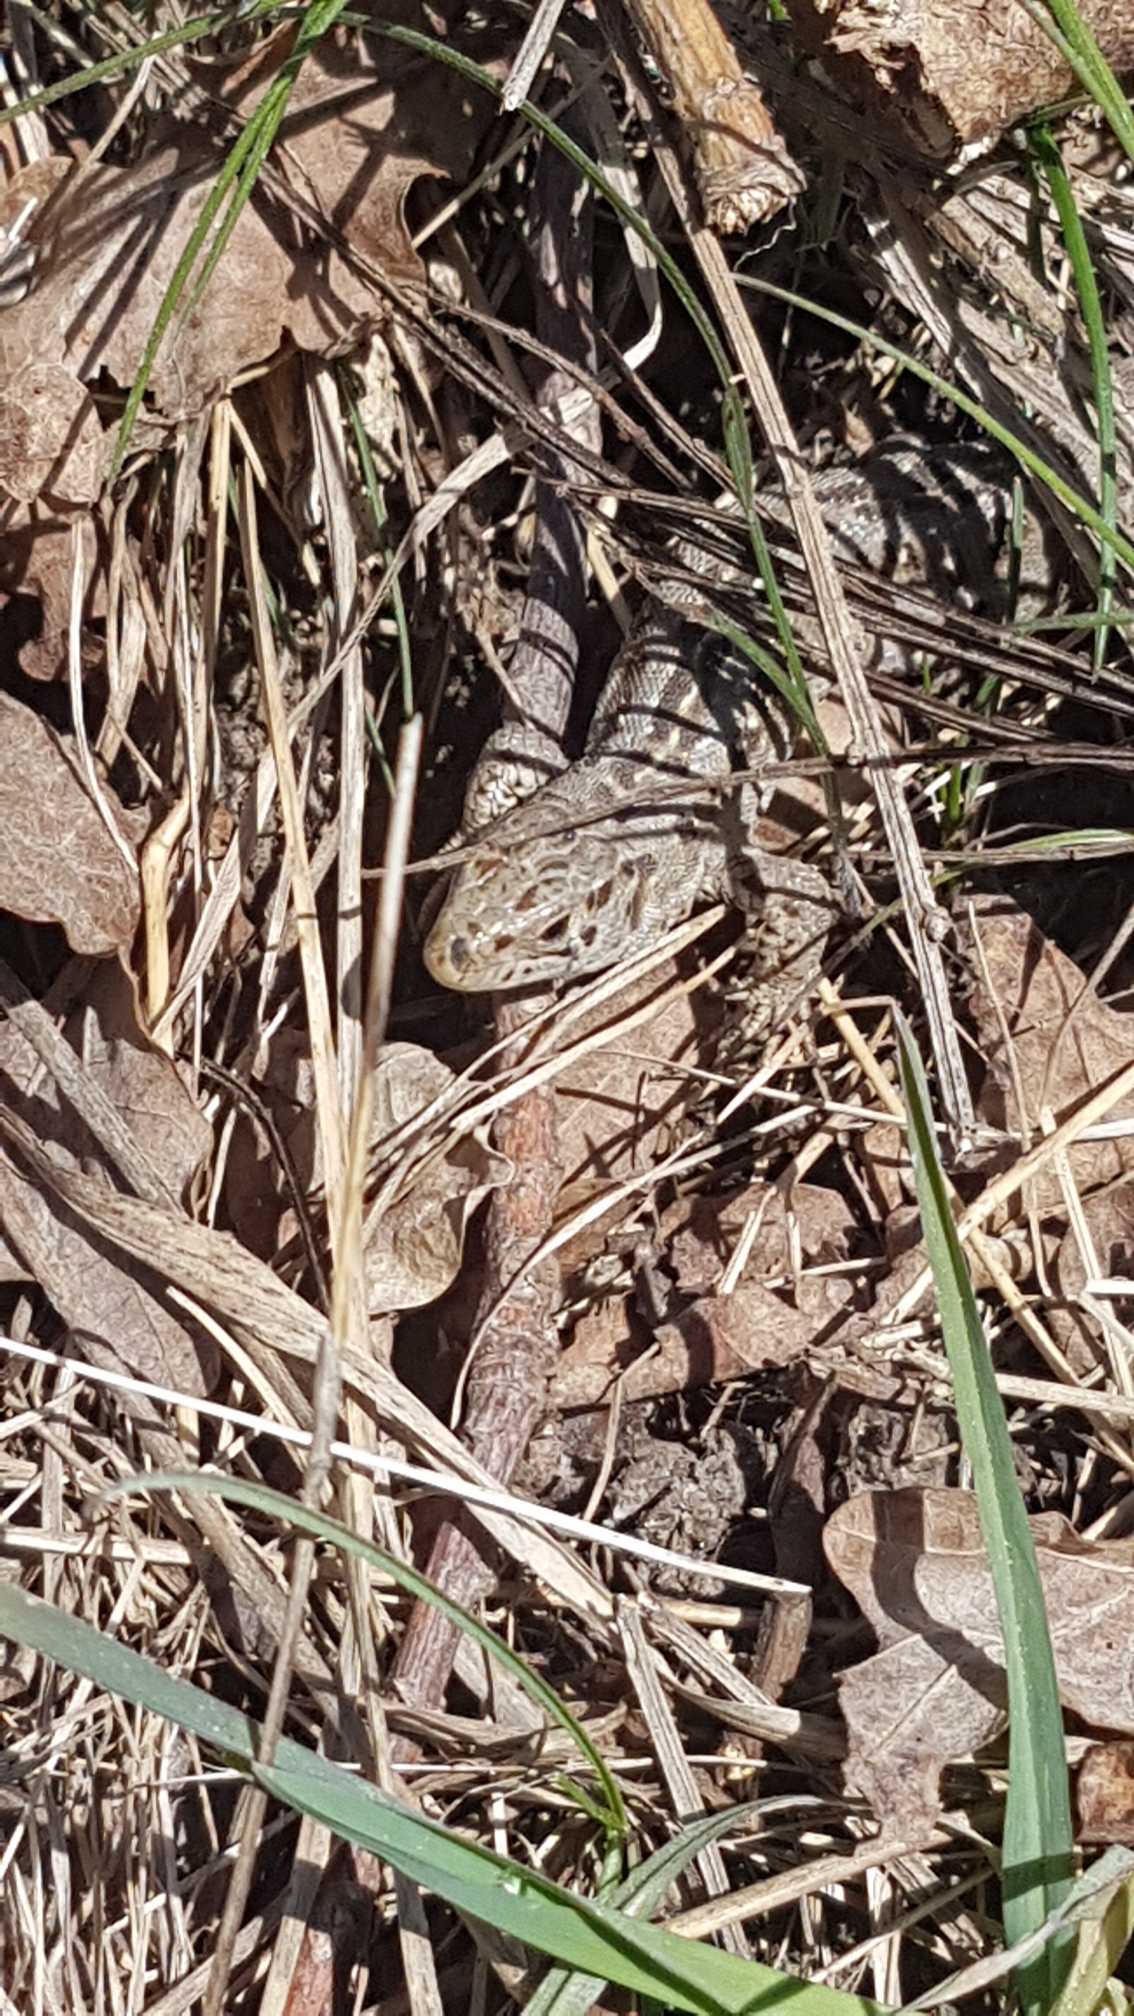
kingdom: Animalia
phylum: Chordata
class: Squamata
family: Lacertidae
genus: Lacerta
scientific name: Lacerta agilis
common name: Markfirben
